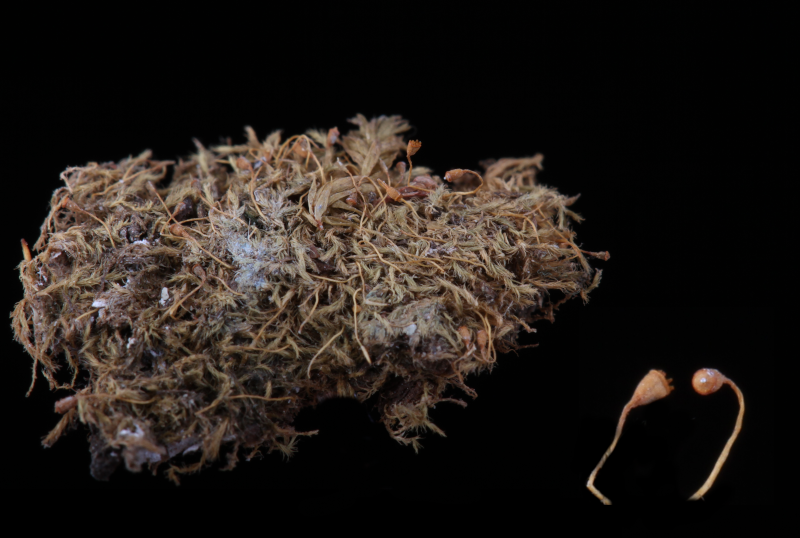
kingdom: Plantae
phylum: Bryophyta
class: Bryopsida
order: Hypnales
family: Fabroniaceae
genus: Fabronia
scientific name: Fabronia zollingeri
